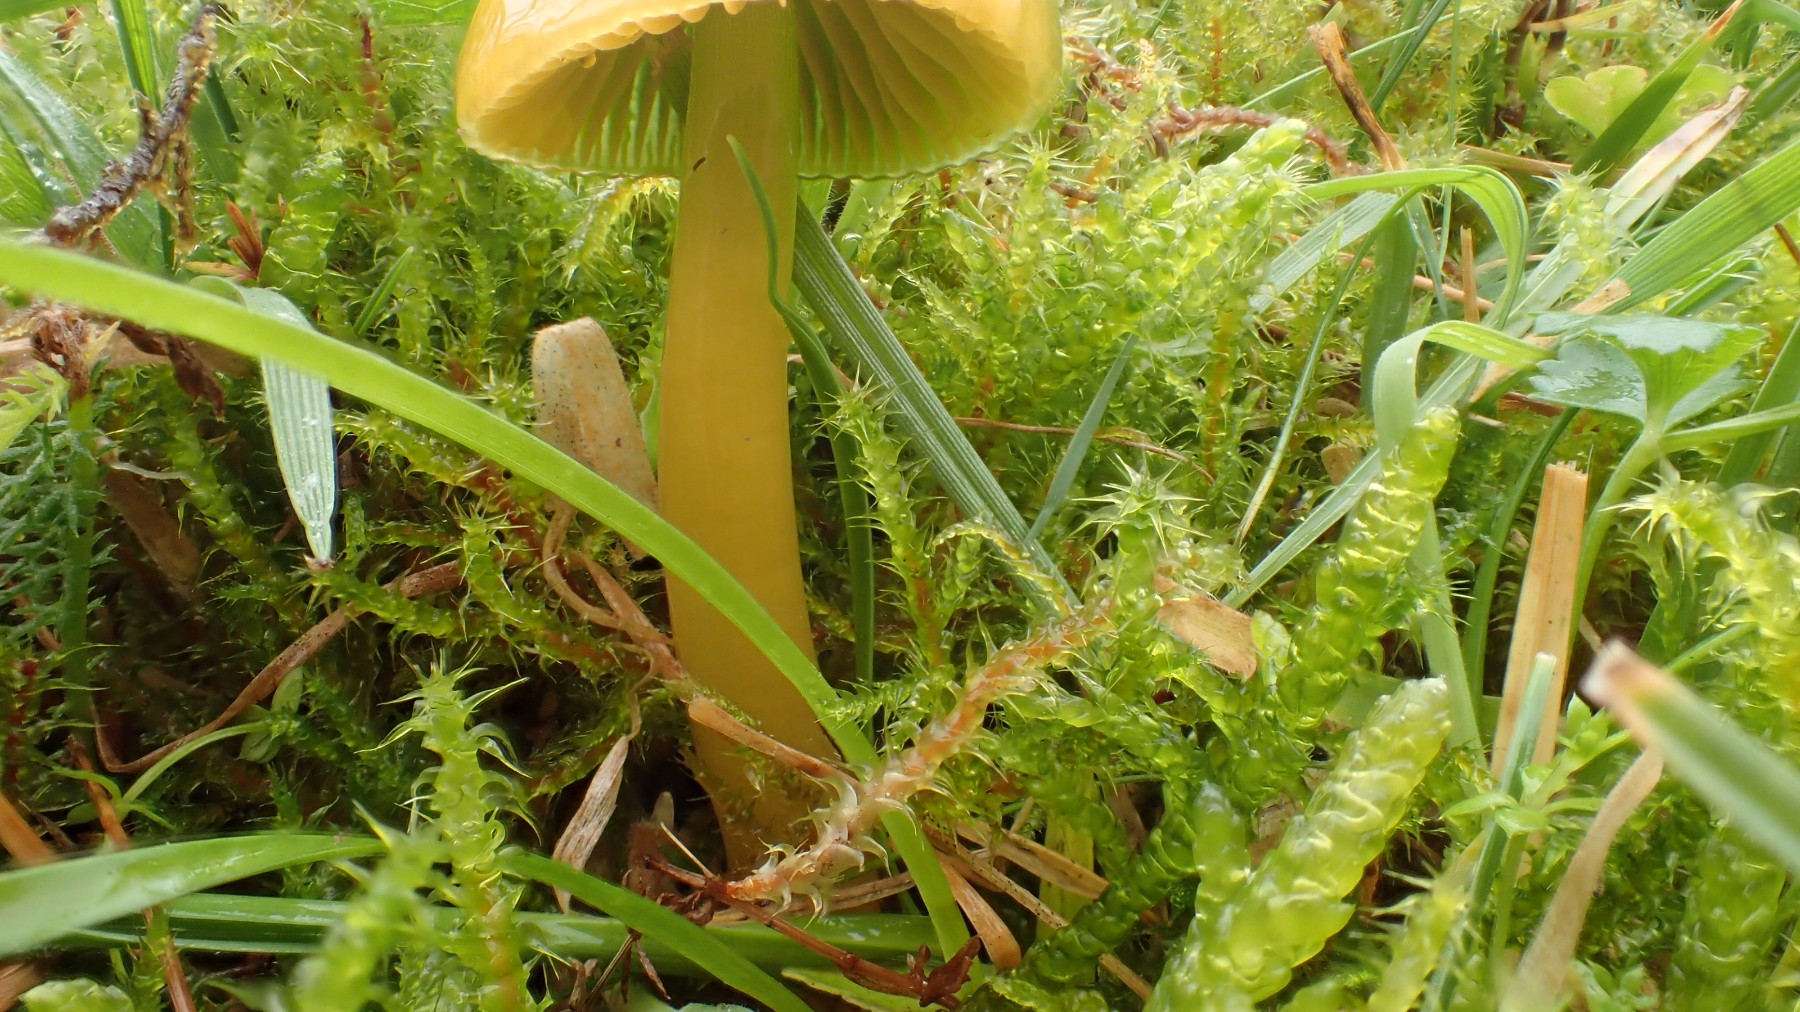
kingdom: Fungi
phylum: Basidiomycota
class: Agaricomycetes
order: Agaricales
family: Hygrophoraceae
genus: Gliophorus
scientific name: Gliophorus psittacinus
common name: papegøje-vokshat
